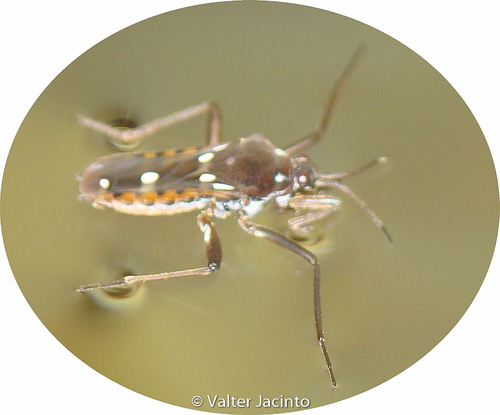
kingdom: Animalia
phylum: Arthropoda
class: Insecta
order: Hemiptera
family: Veliidae
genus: Plesiovelia
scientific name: Plesiovelia
